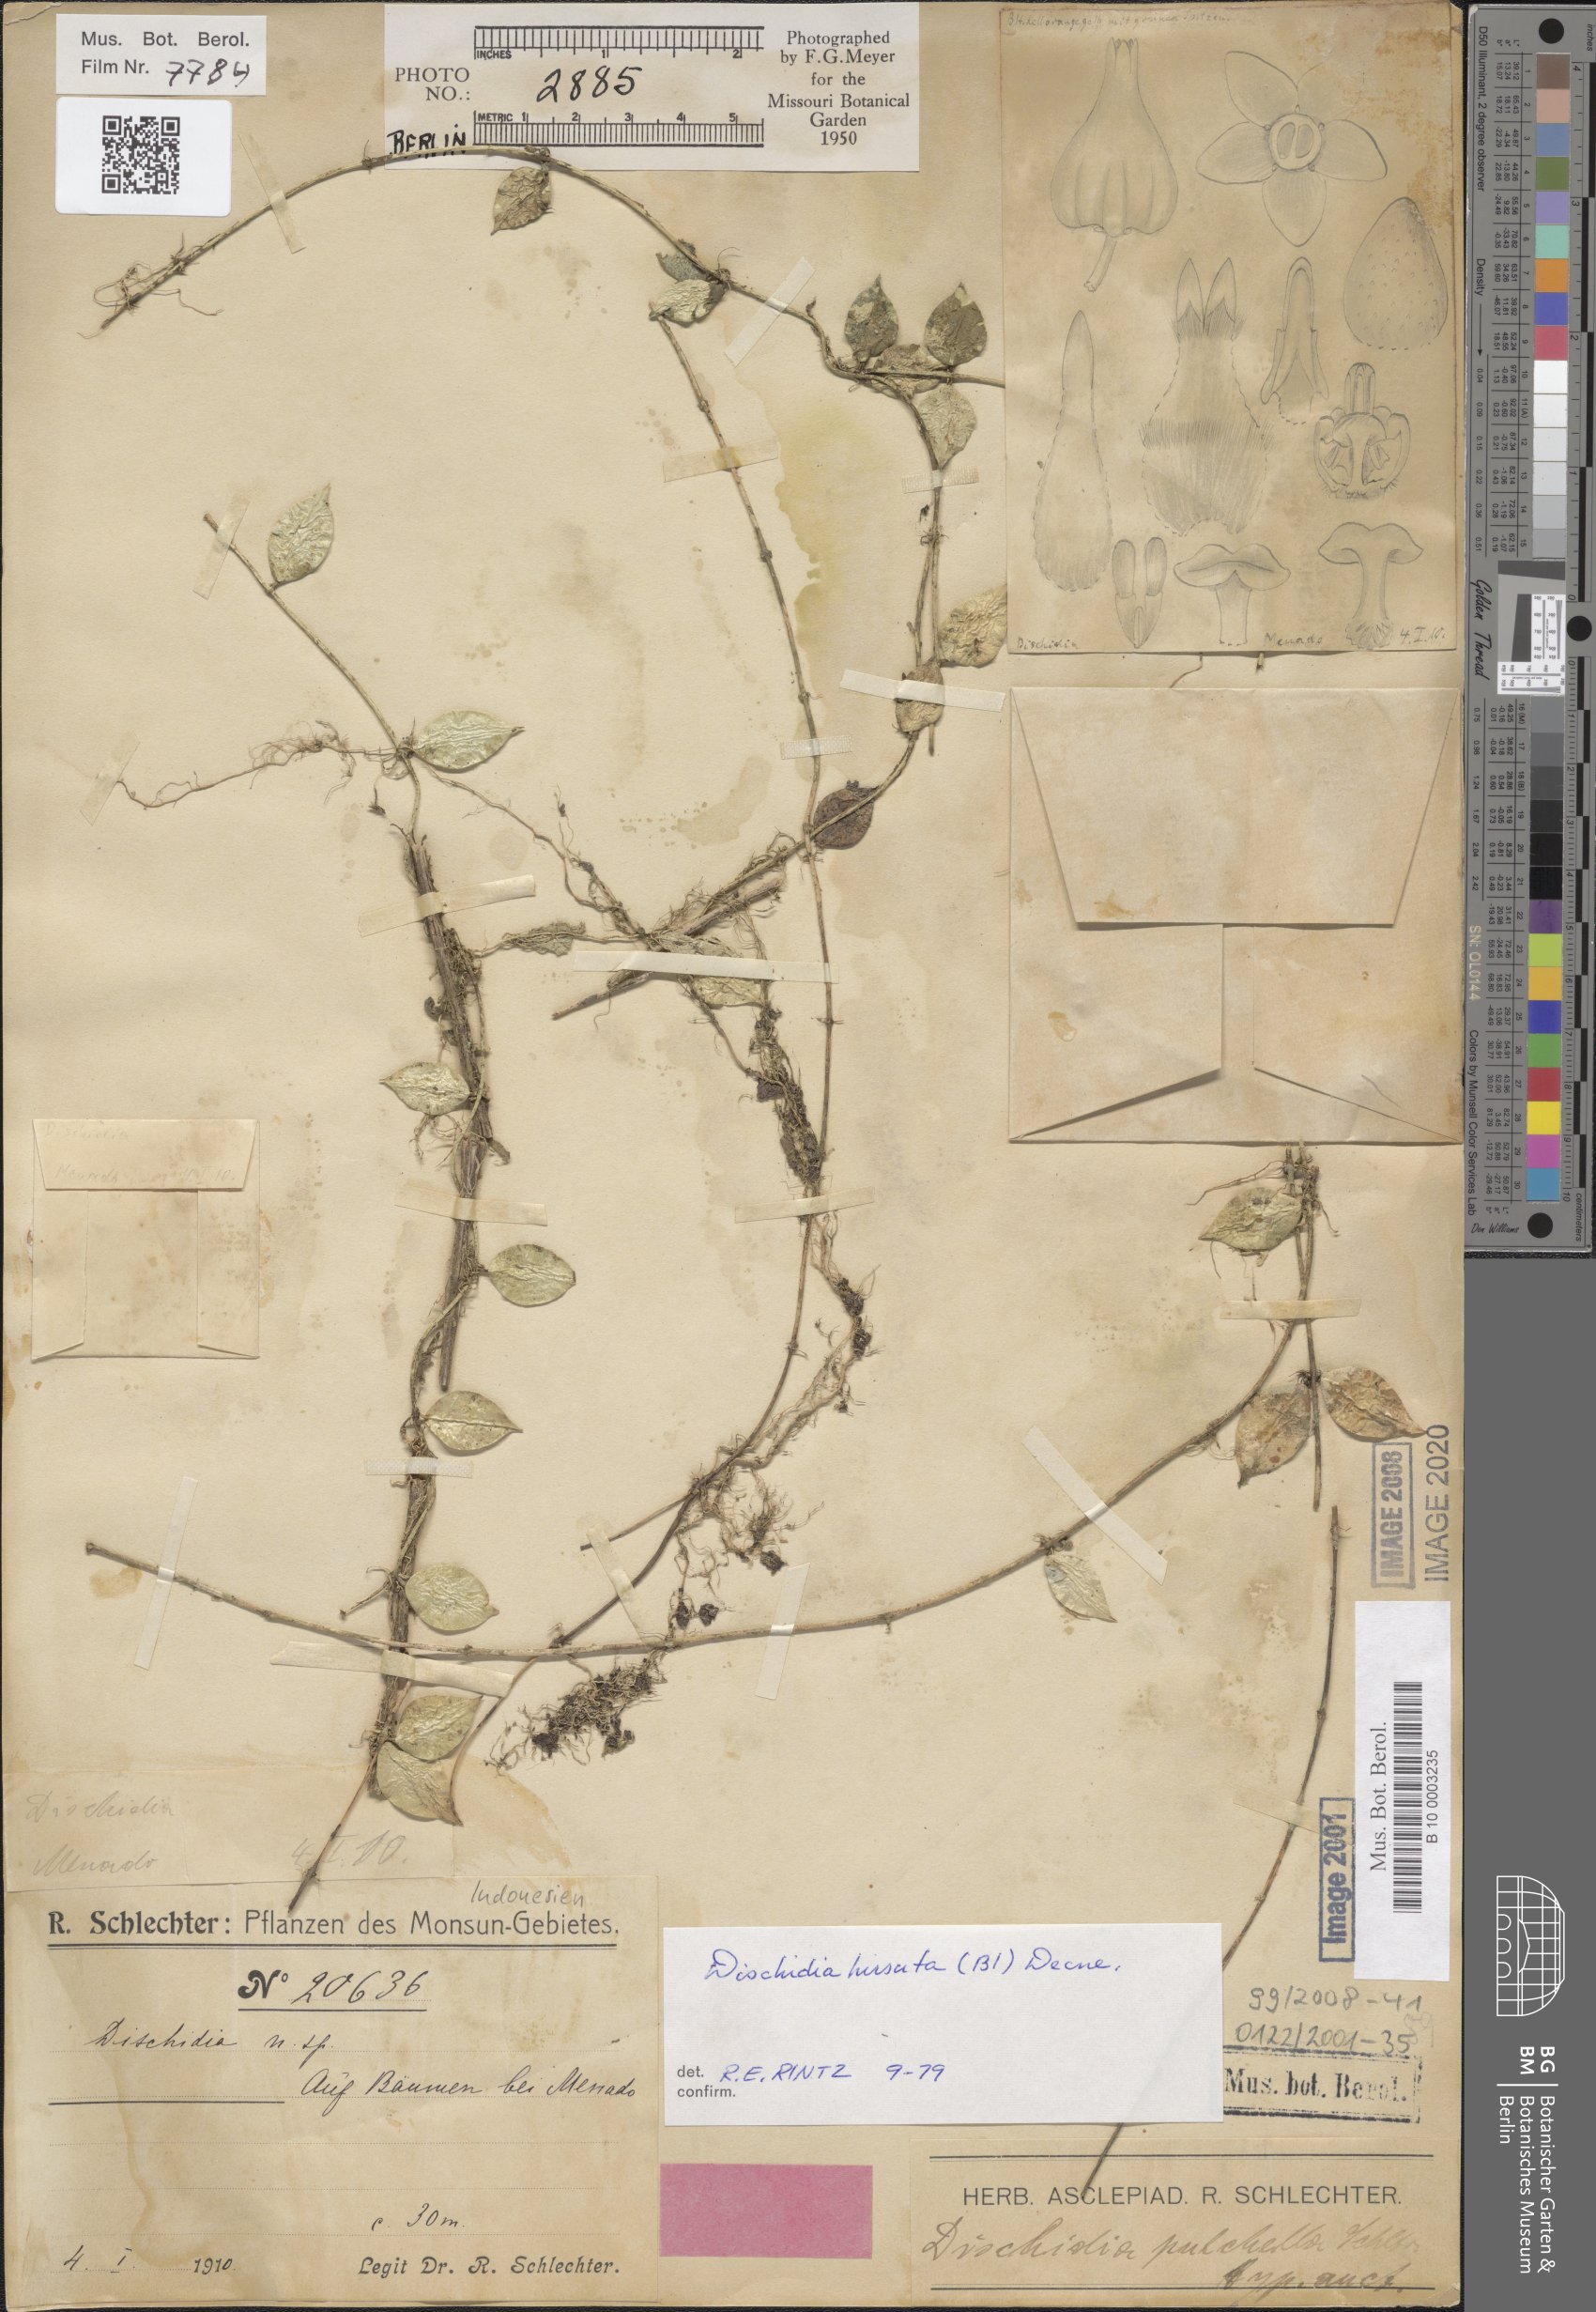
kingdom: Plantae
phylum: Tracheophyta
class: Magnoliopsida
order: Gentianales
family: Apocynaceae
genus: Dischidia
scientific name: Dischidia hirsuta
